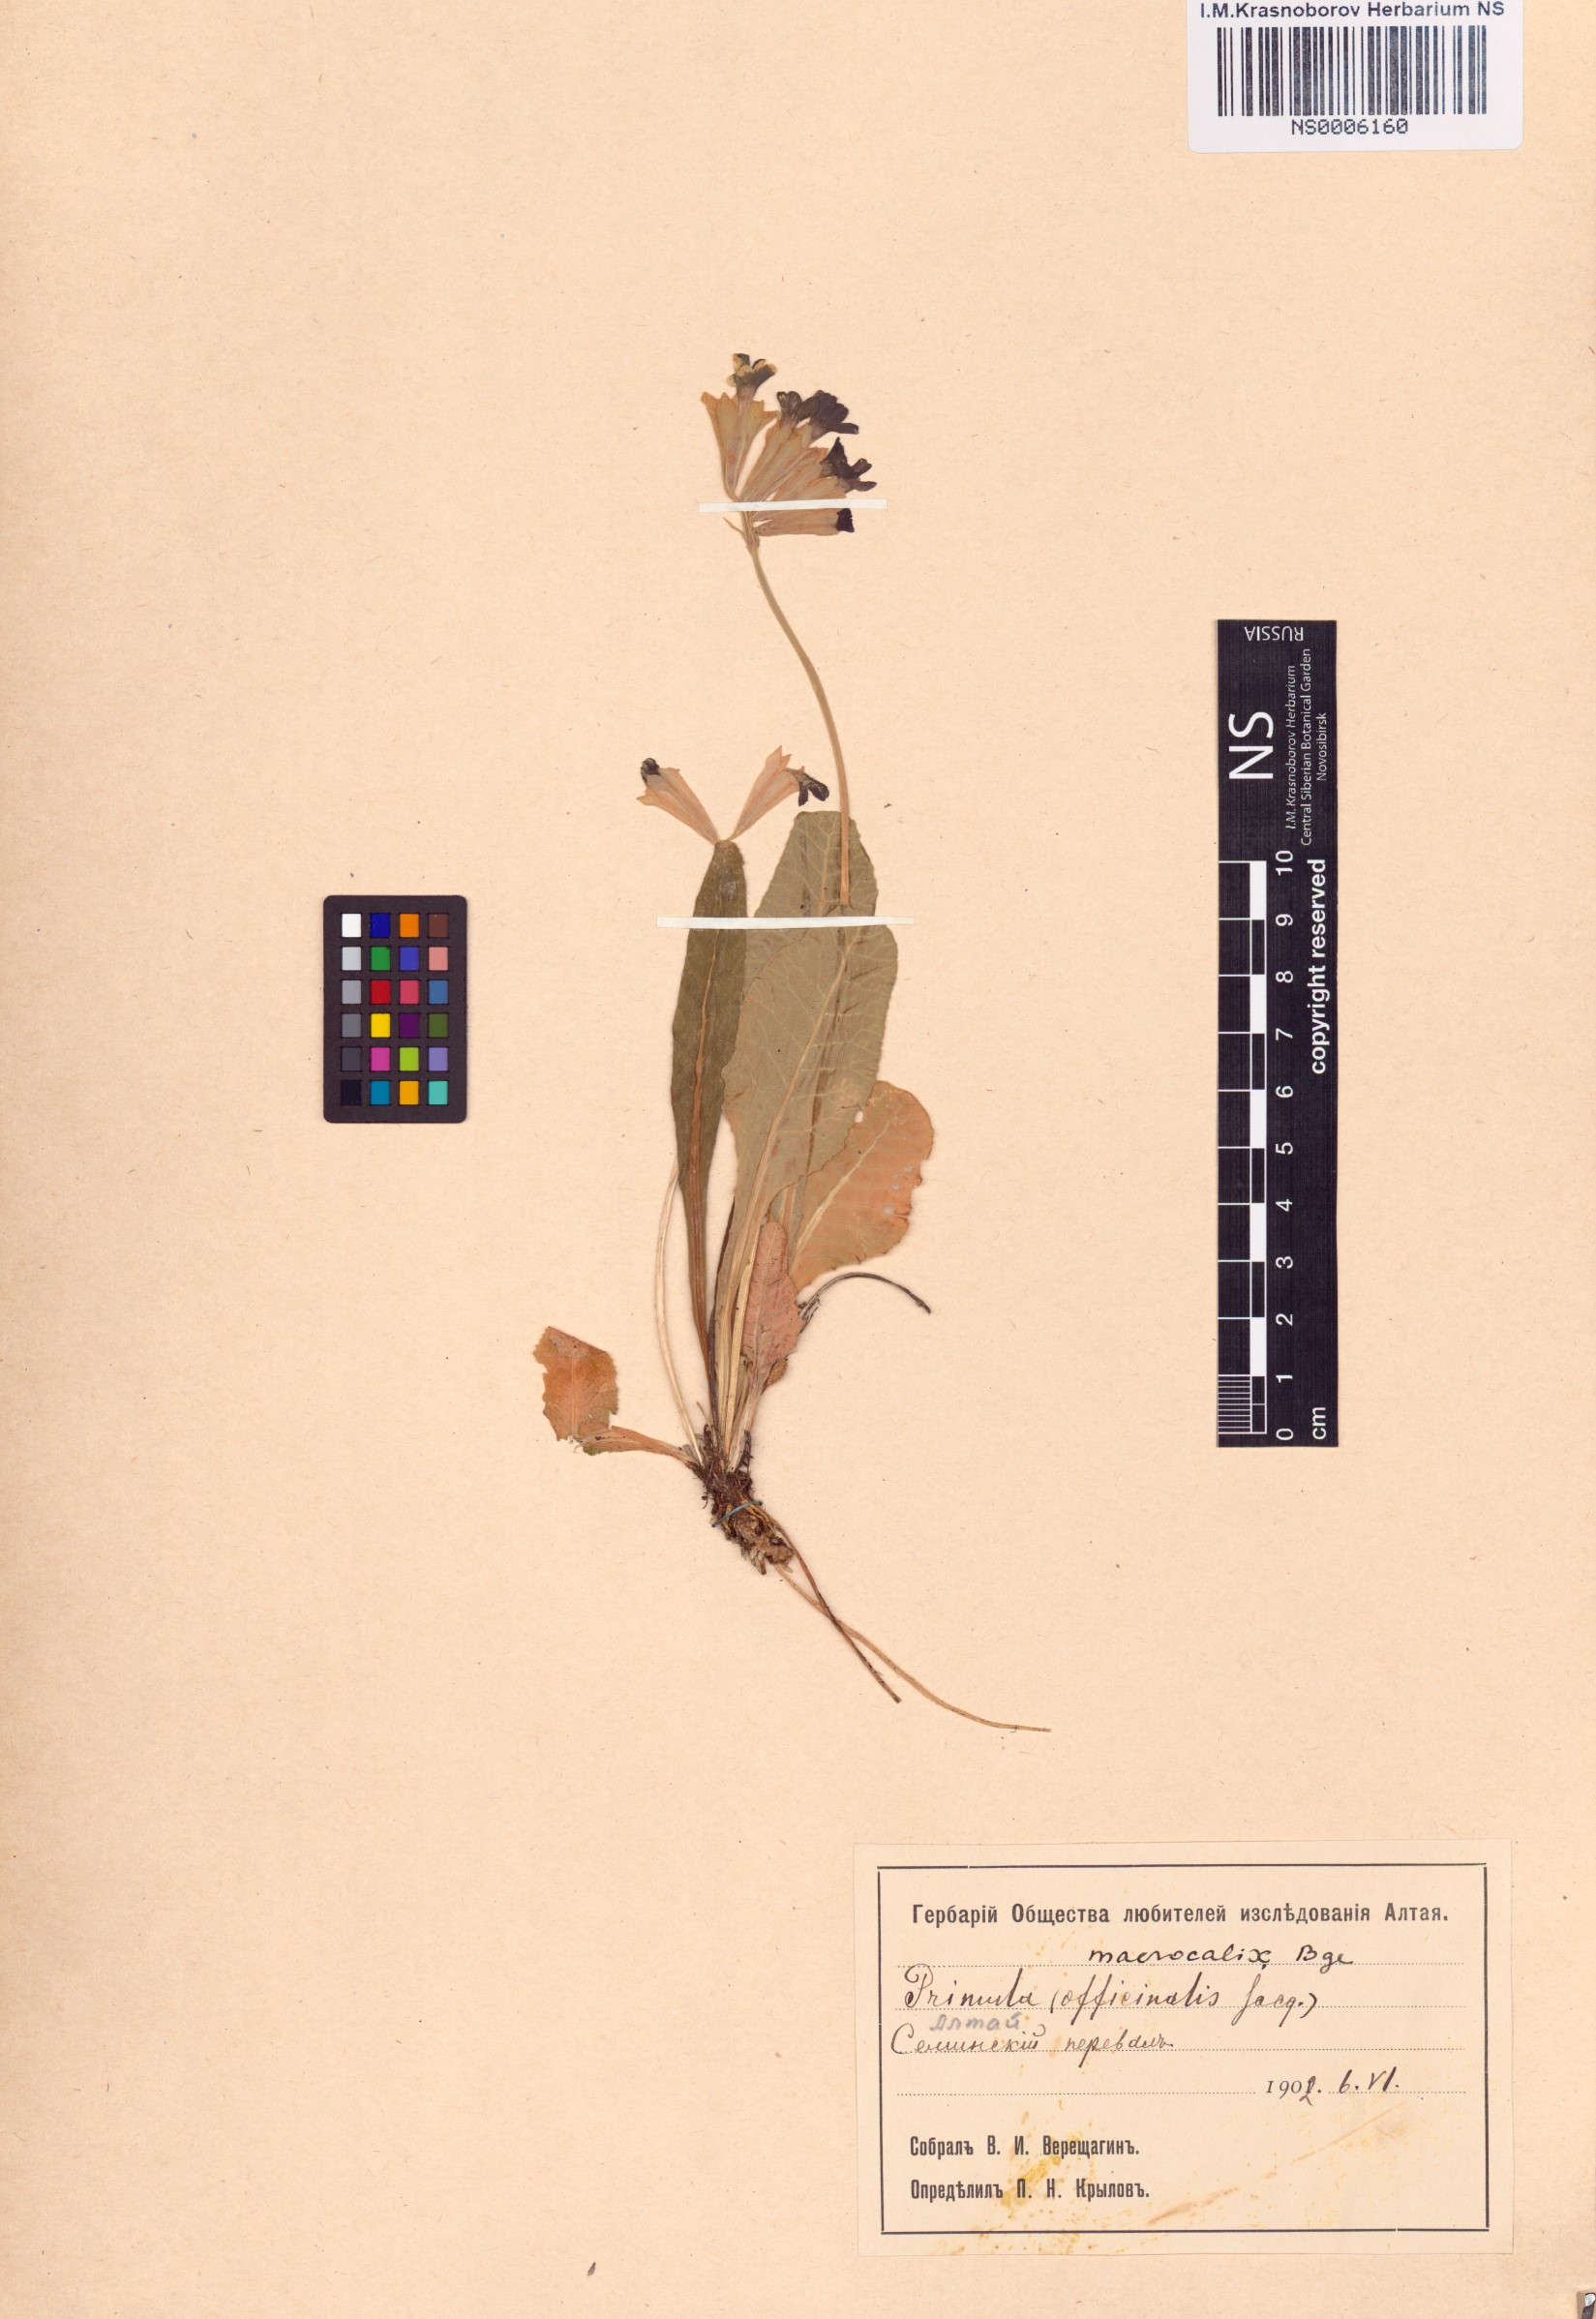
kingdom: Plantae
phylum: Tracheophyta
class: Magnoliopsida
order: Ericales
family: Primulaceae
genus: Primula
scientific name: Primula veris
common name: Cowslip
